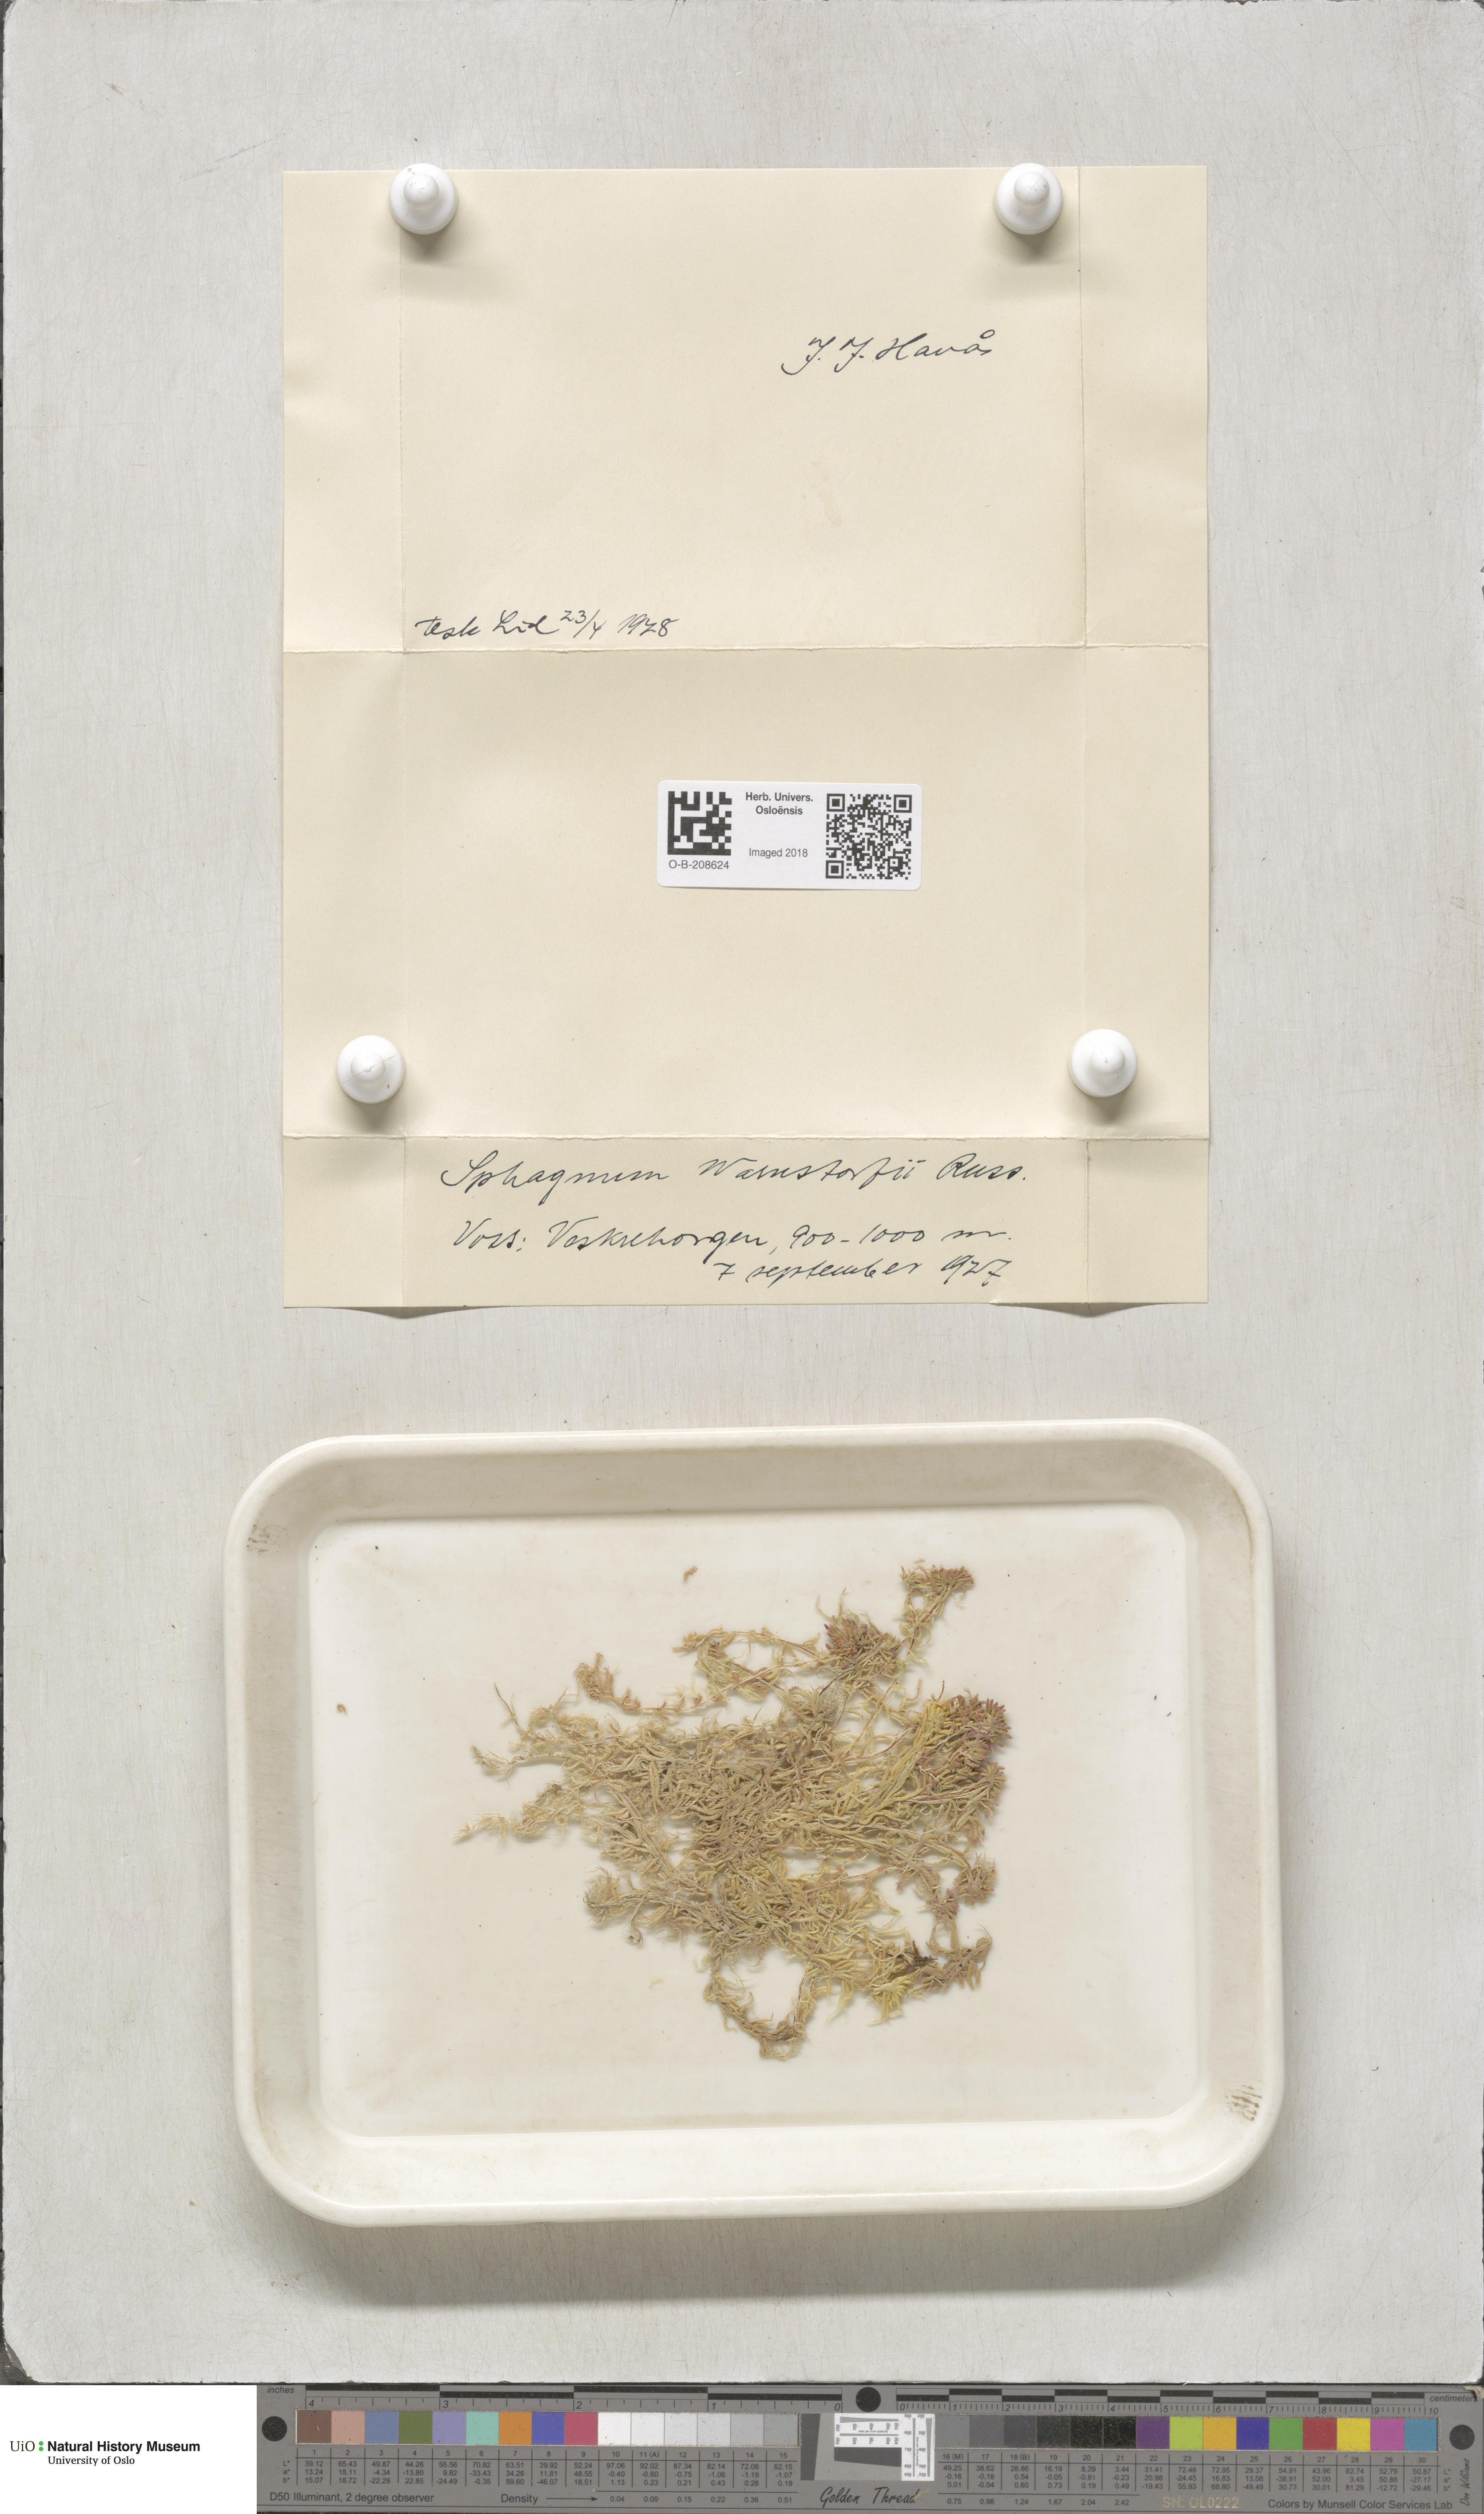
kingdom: Plantae
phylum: Bryophyta
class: Sphagnopsida
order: Sphagnales
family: Sphagnaceae
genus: Sphagnum
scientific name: Sphagnum warnstorfii
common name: Warnstorf's peat moss
